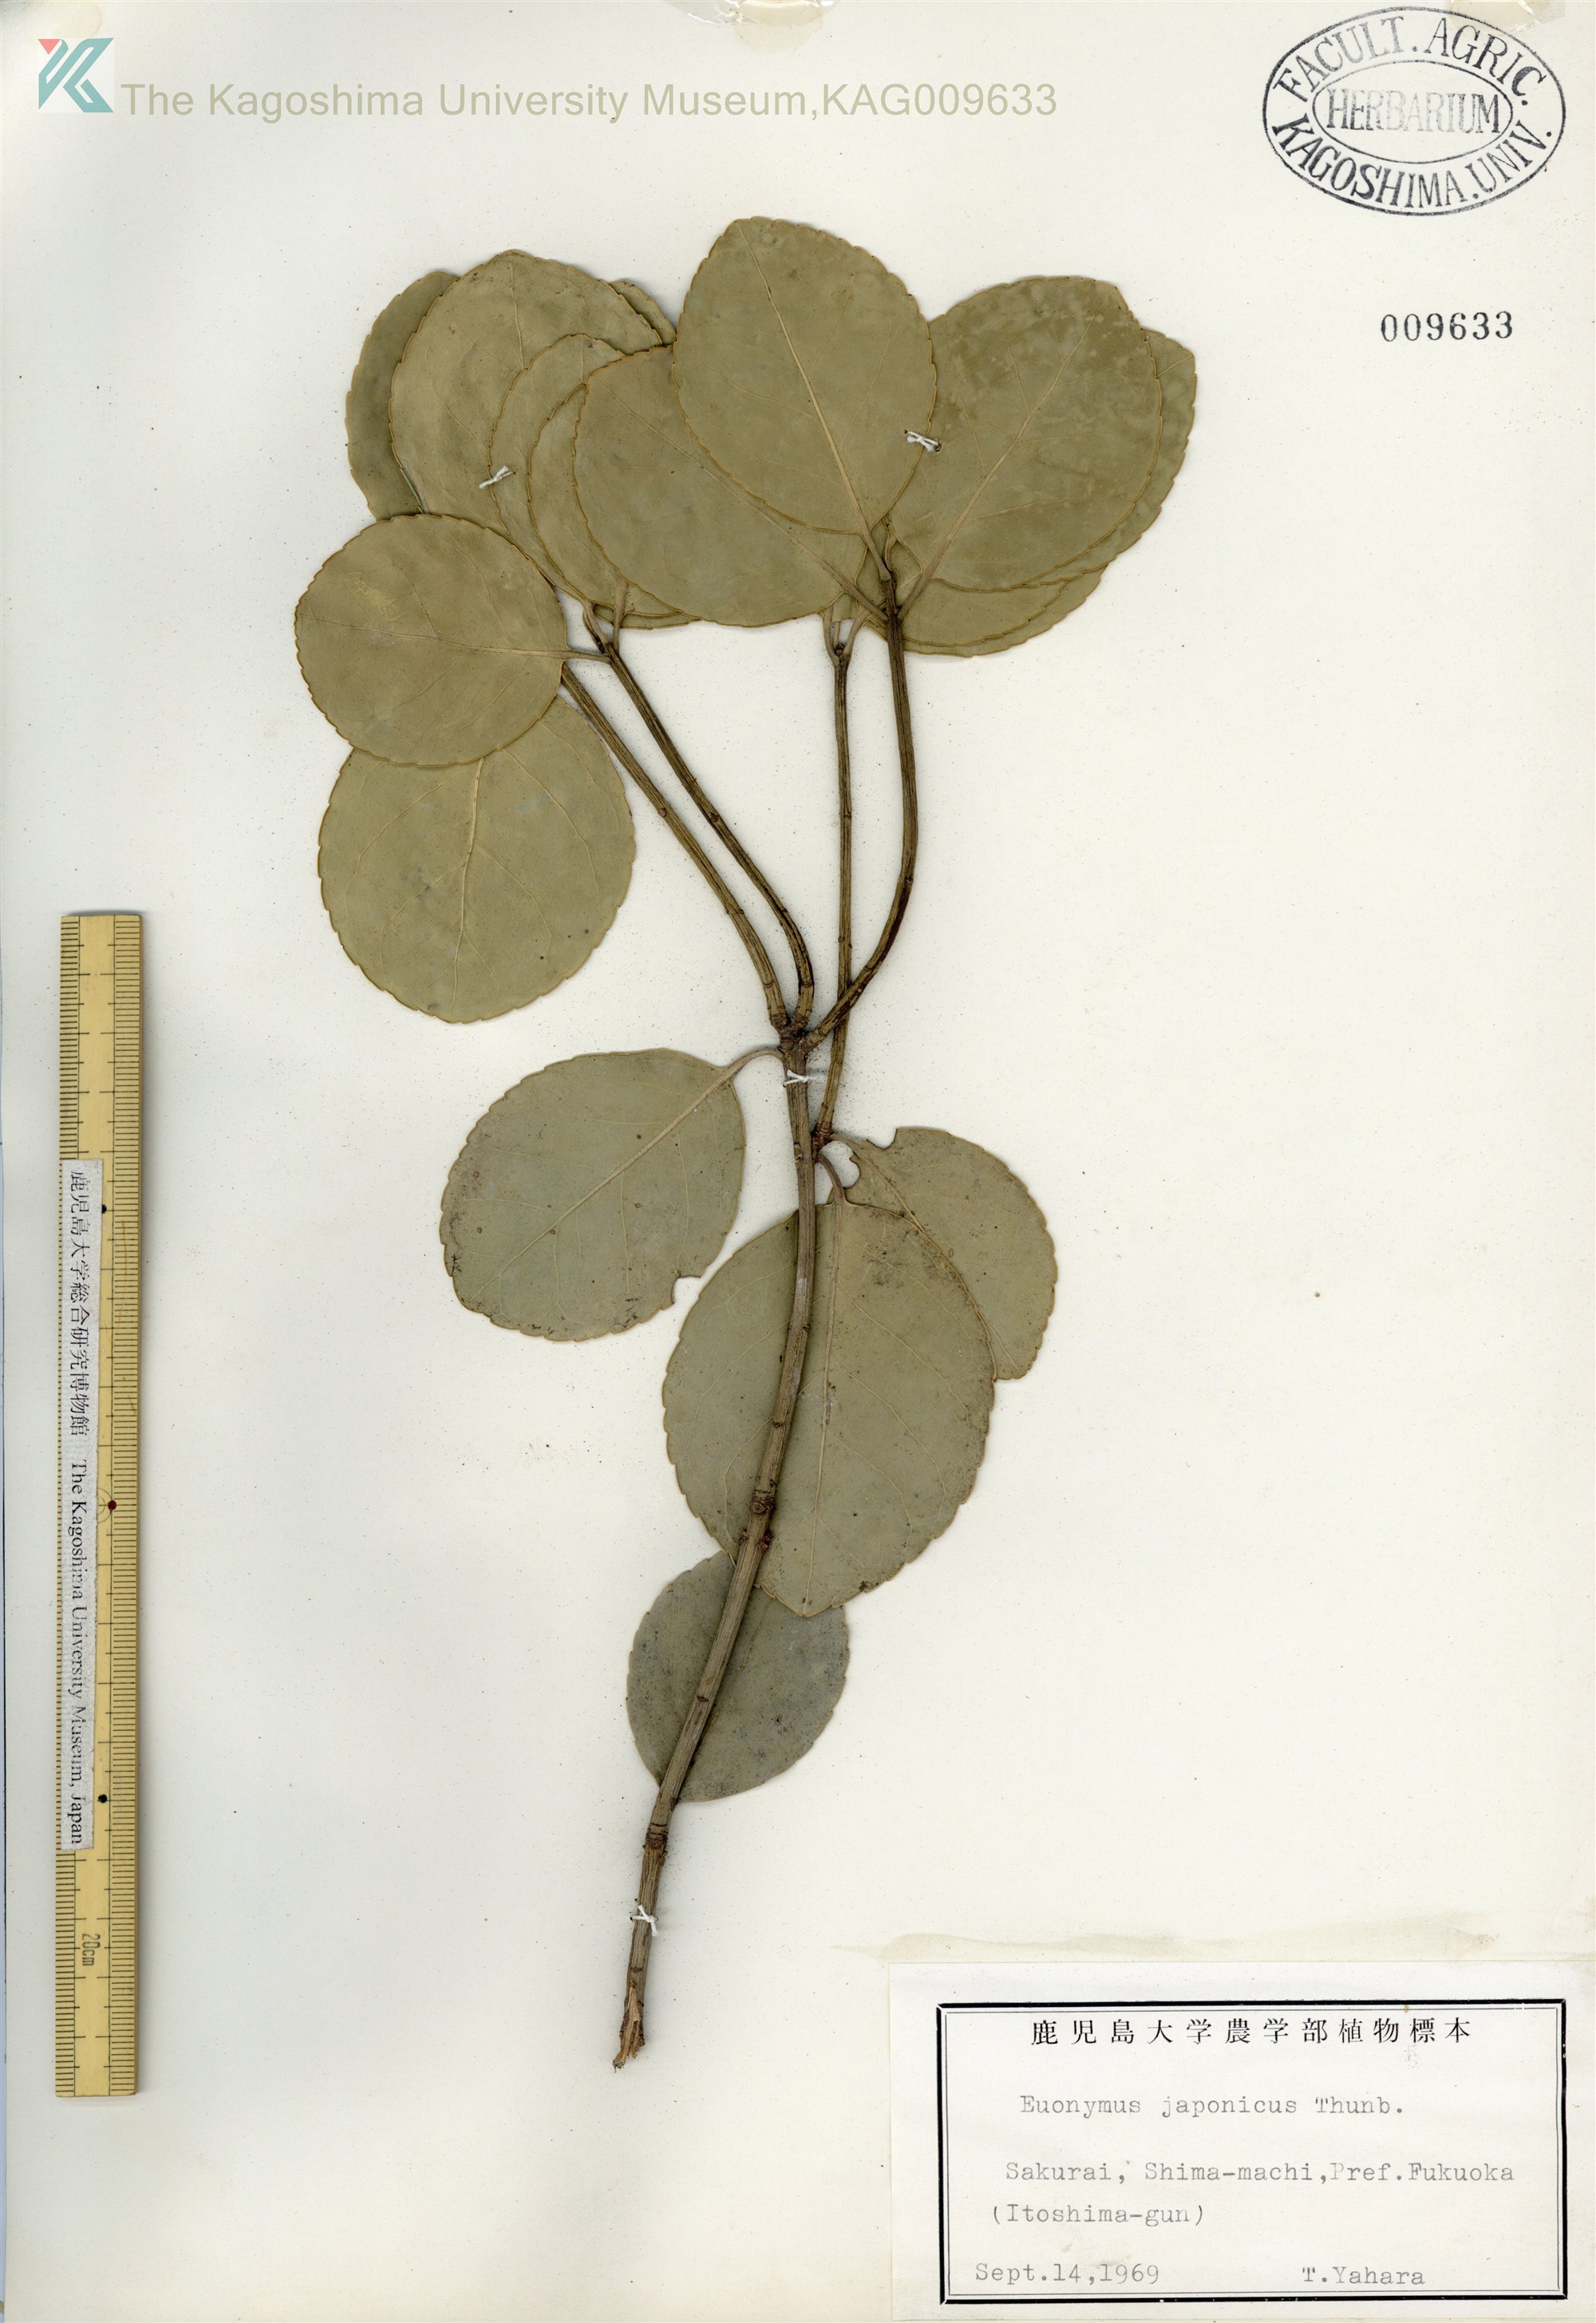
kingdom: Plantae
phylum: Tracheophyta
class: Magnoliopsida
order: Celastrales
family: Celastraceae
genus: Euonymus
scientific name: Euonymus japonicus
